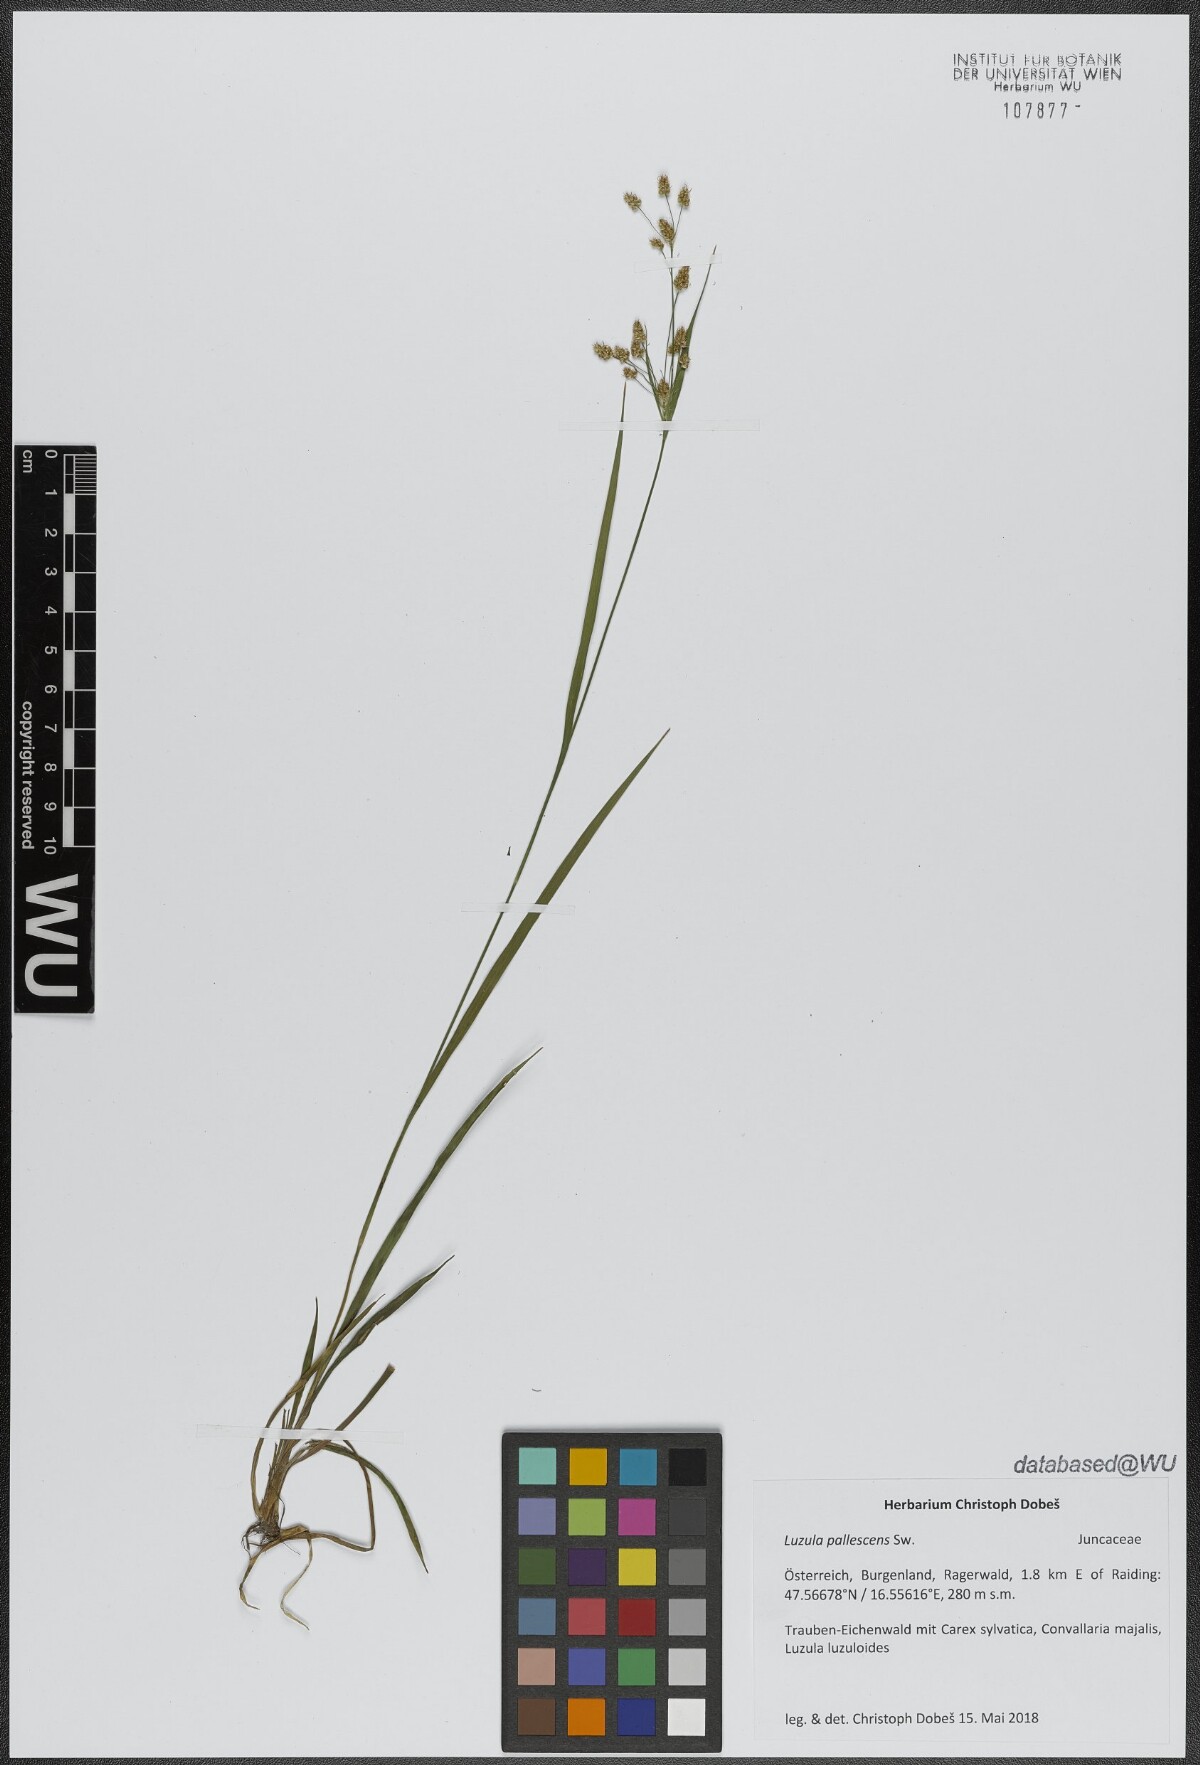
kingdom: Plantae
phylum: Tracheophyta
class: Liliopsida
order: Poales
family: Juncaceae
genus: Luzula
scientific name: Luzula pallescens
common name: Fen wood-rush
